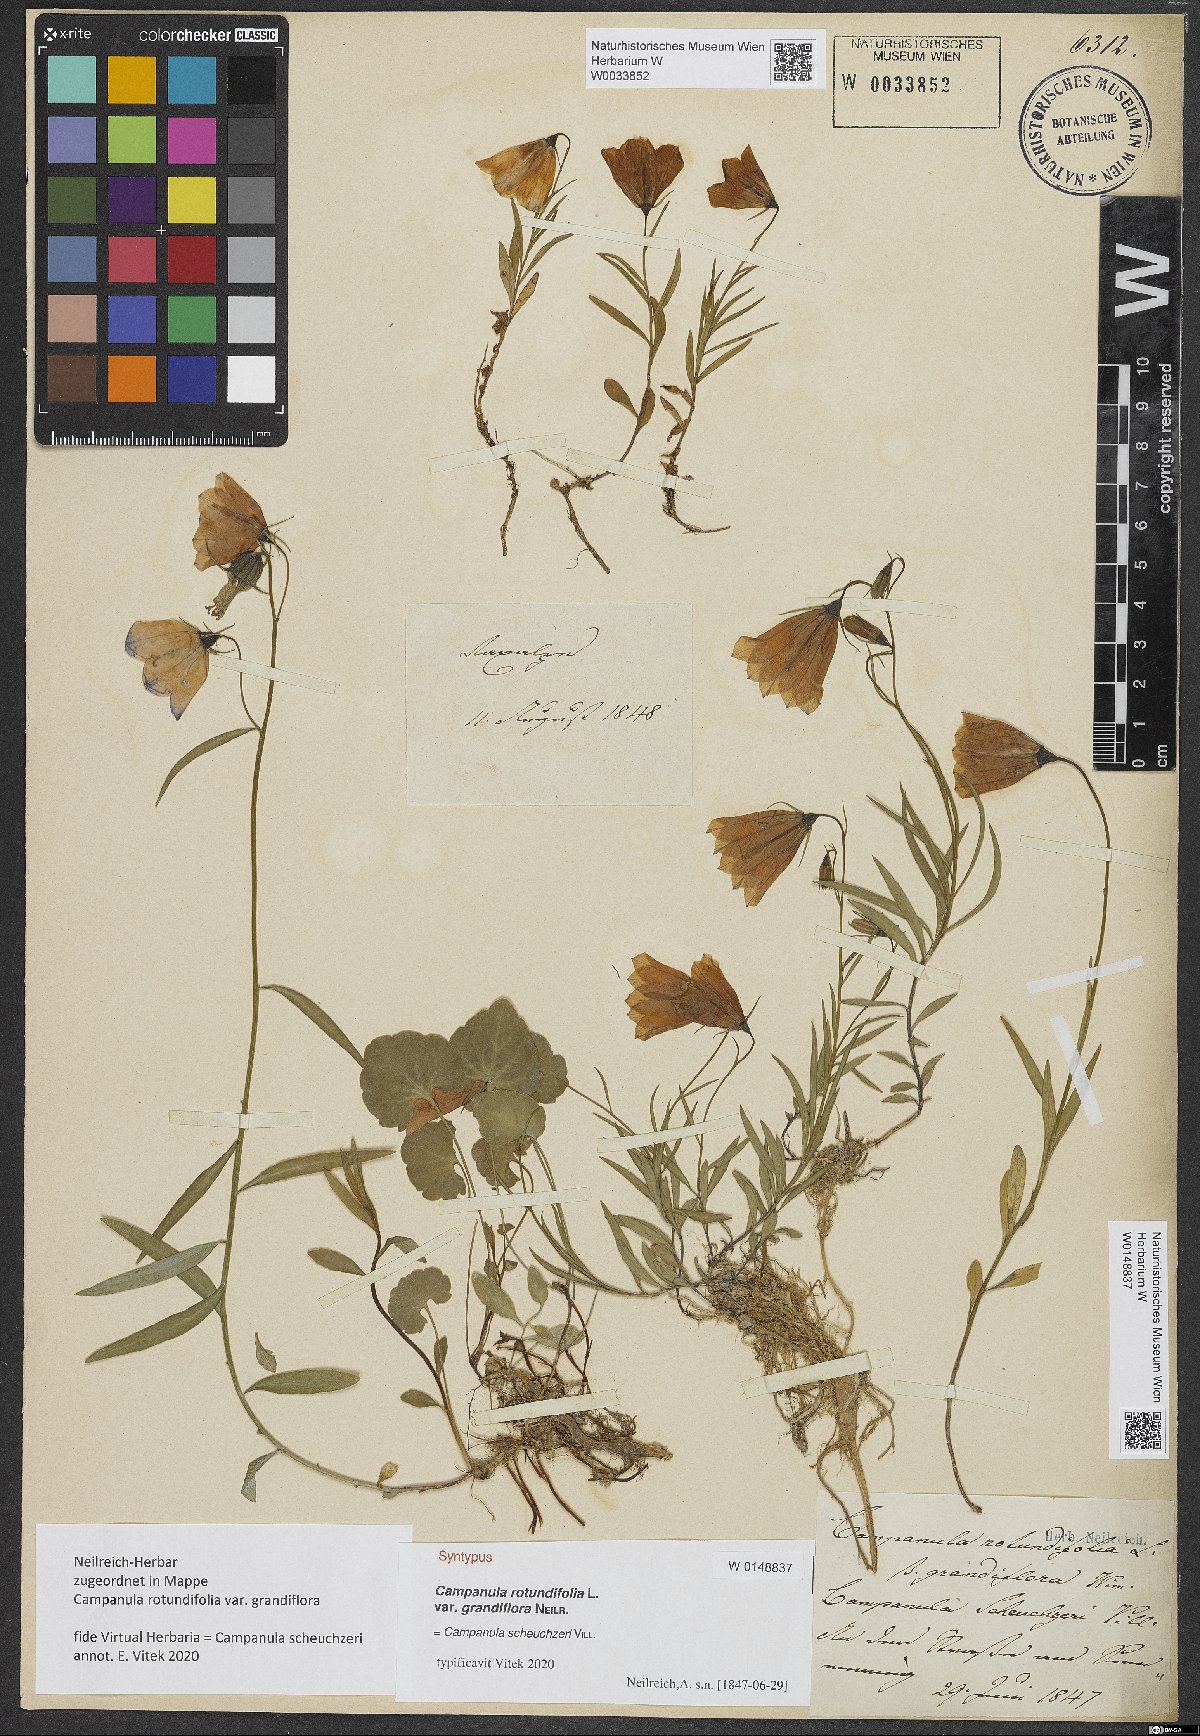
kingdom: Plantae
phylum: Tracheophyta
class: Magnoliopsida
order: Asterales
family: Campanulaceae
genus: Campanula
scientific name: Campanula scheuchzeri
